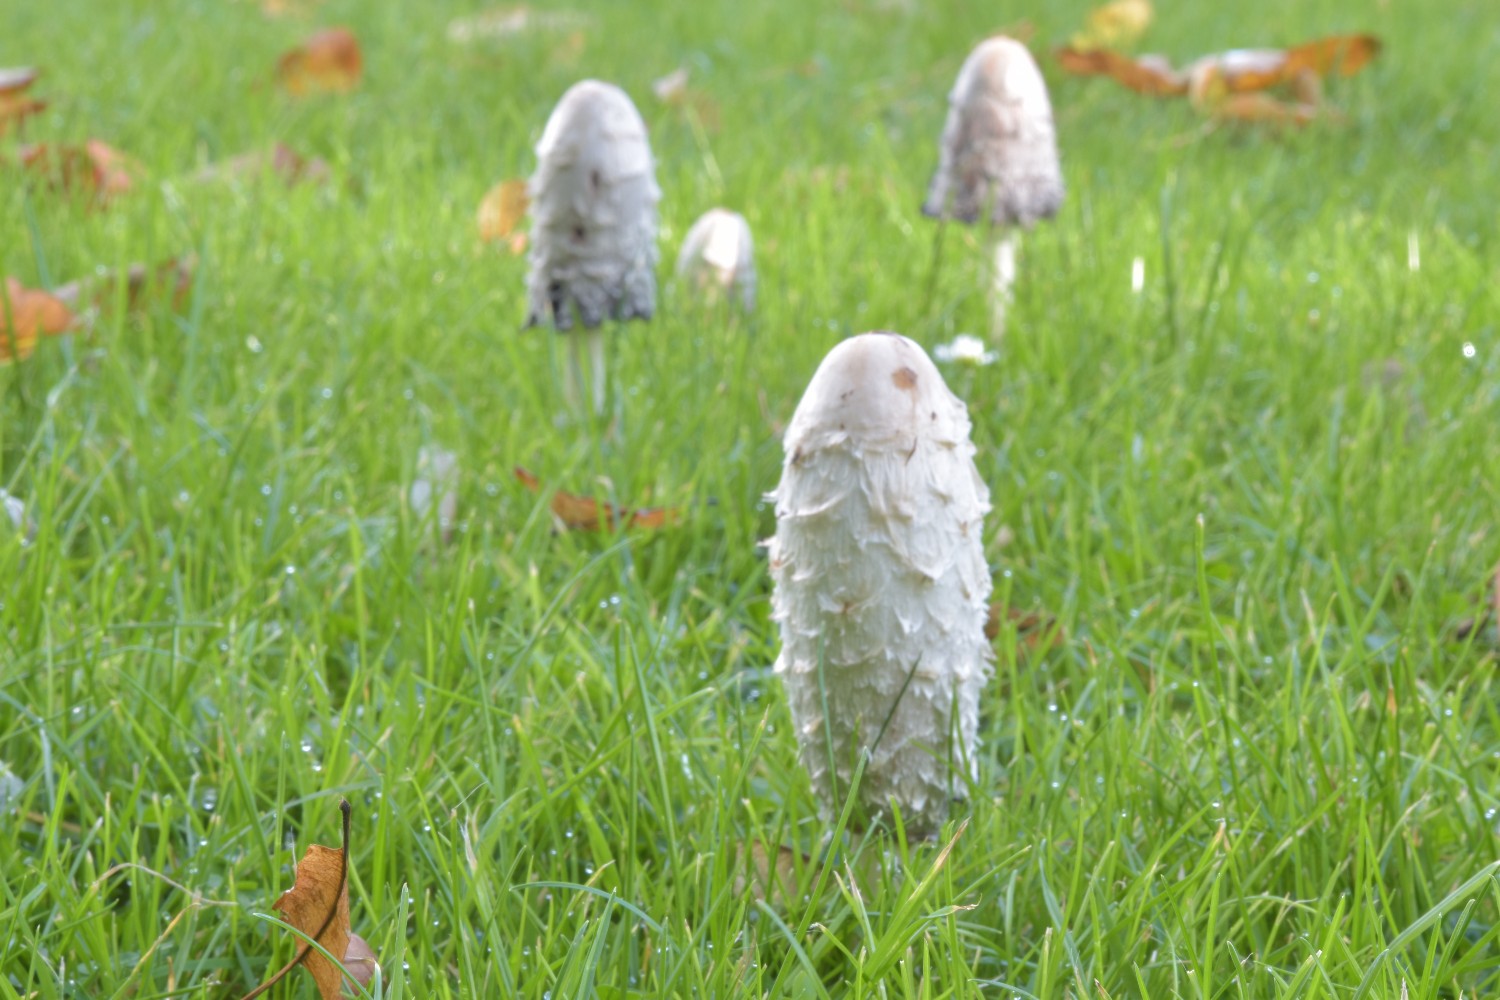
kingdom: Fungi
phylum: Basidiomycota
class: Agaricomycetes
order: Agaricales
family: Agaricaceae
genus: Coprinus
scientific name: Coprinus comatus
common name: stor parykhat
